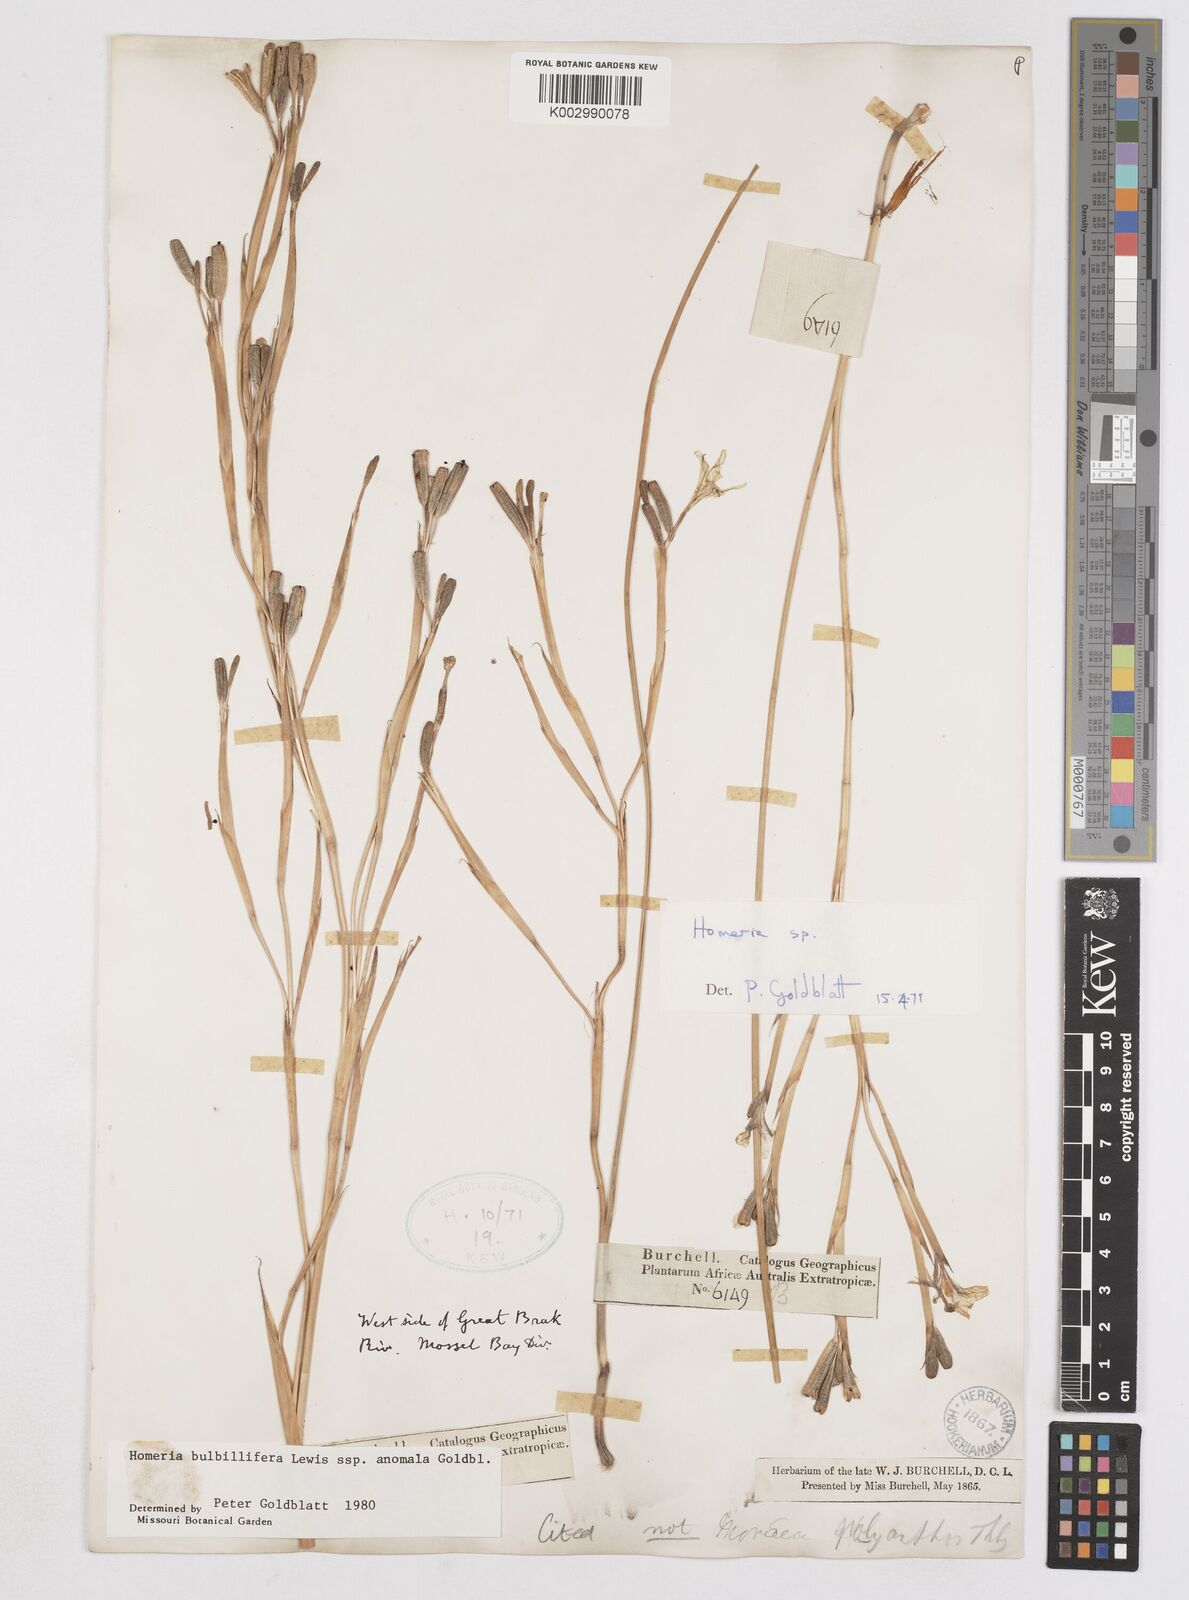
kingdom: Plantae
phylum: Tracheophyta
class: Liliopsida
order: Asparagales
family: Iridaceae
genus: Moraea
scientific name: Moraea bulbillifera
